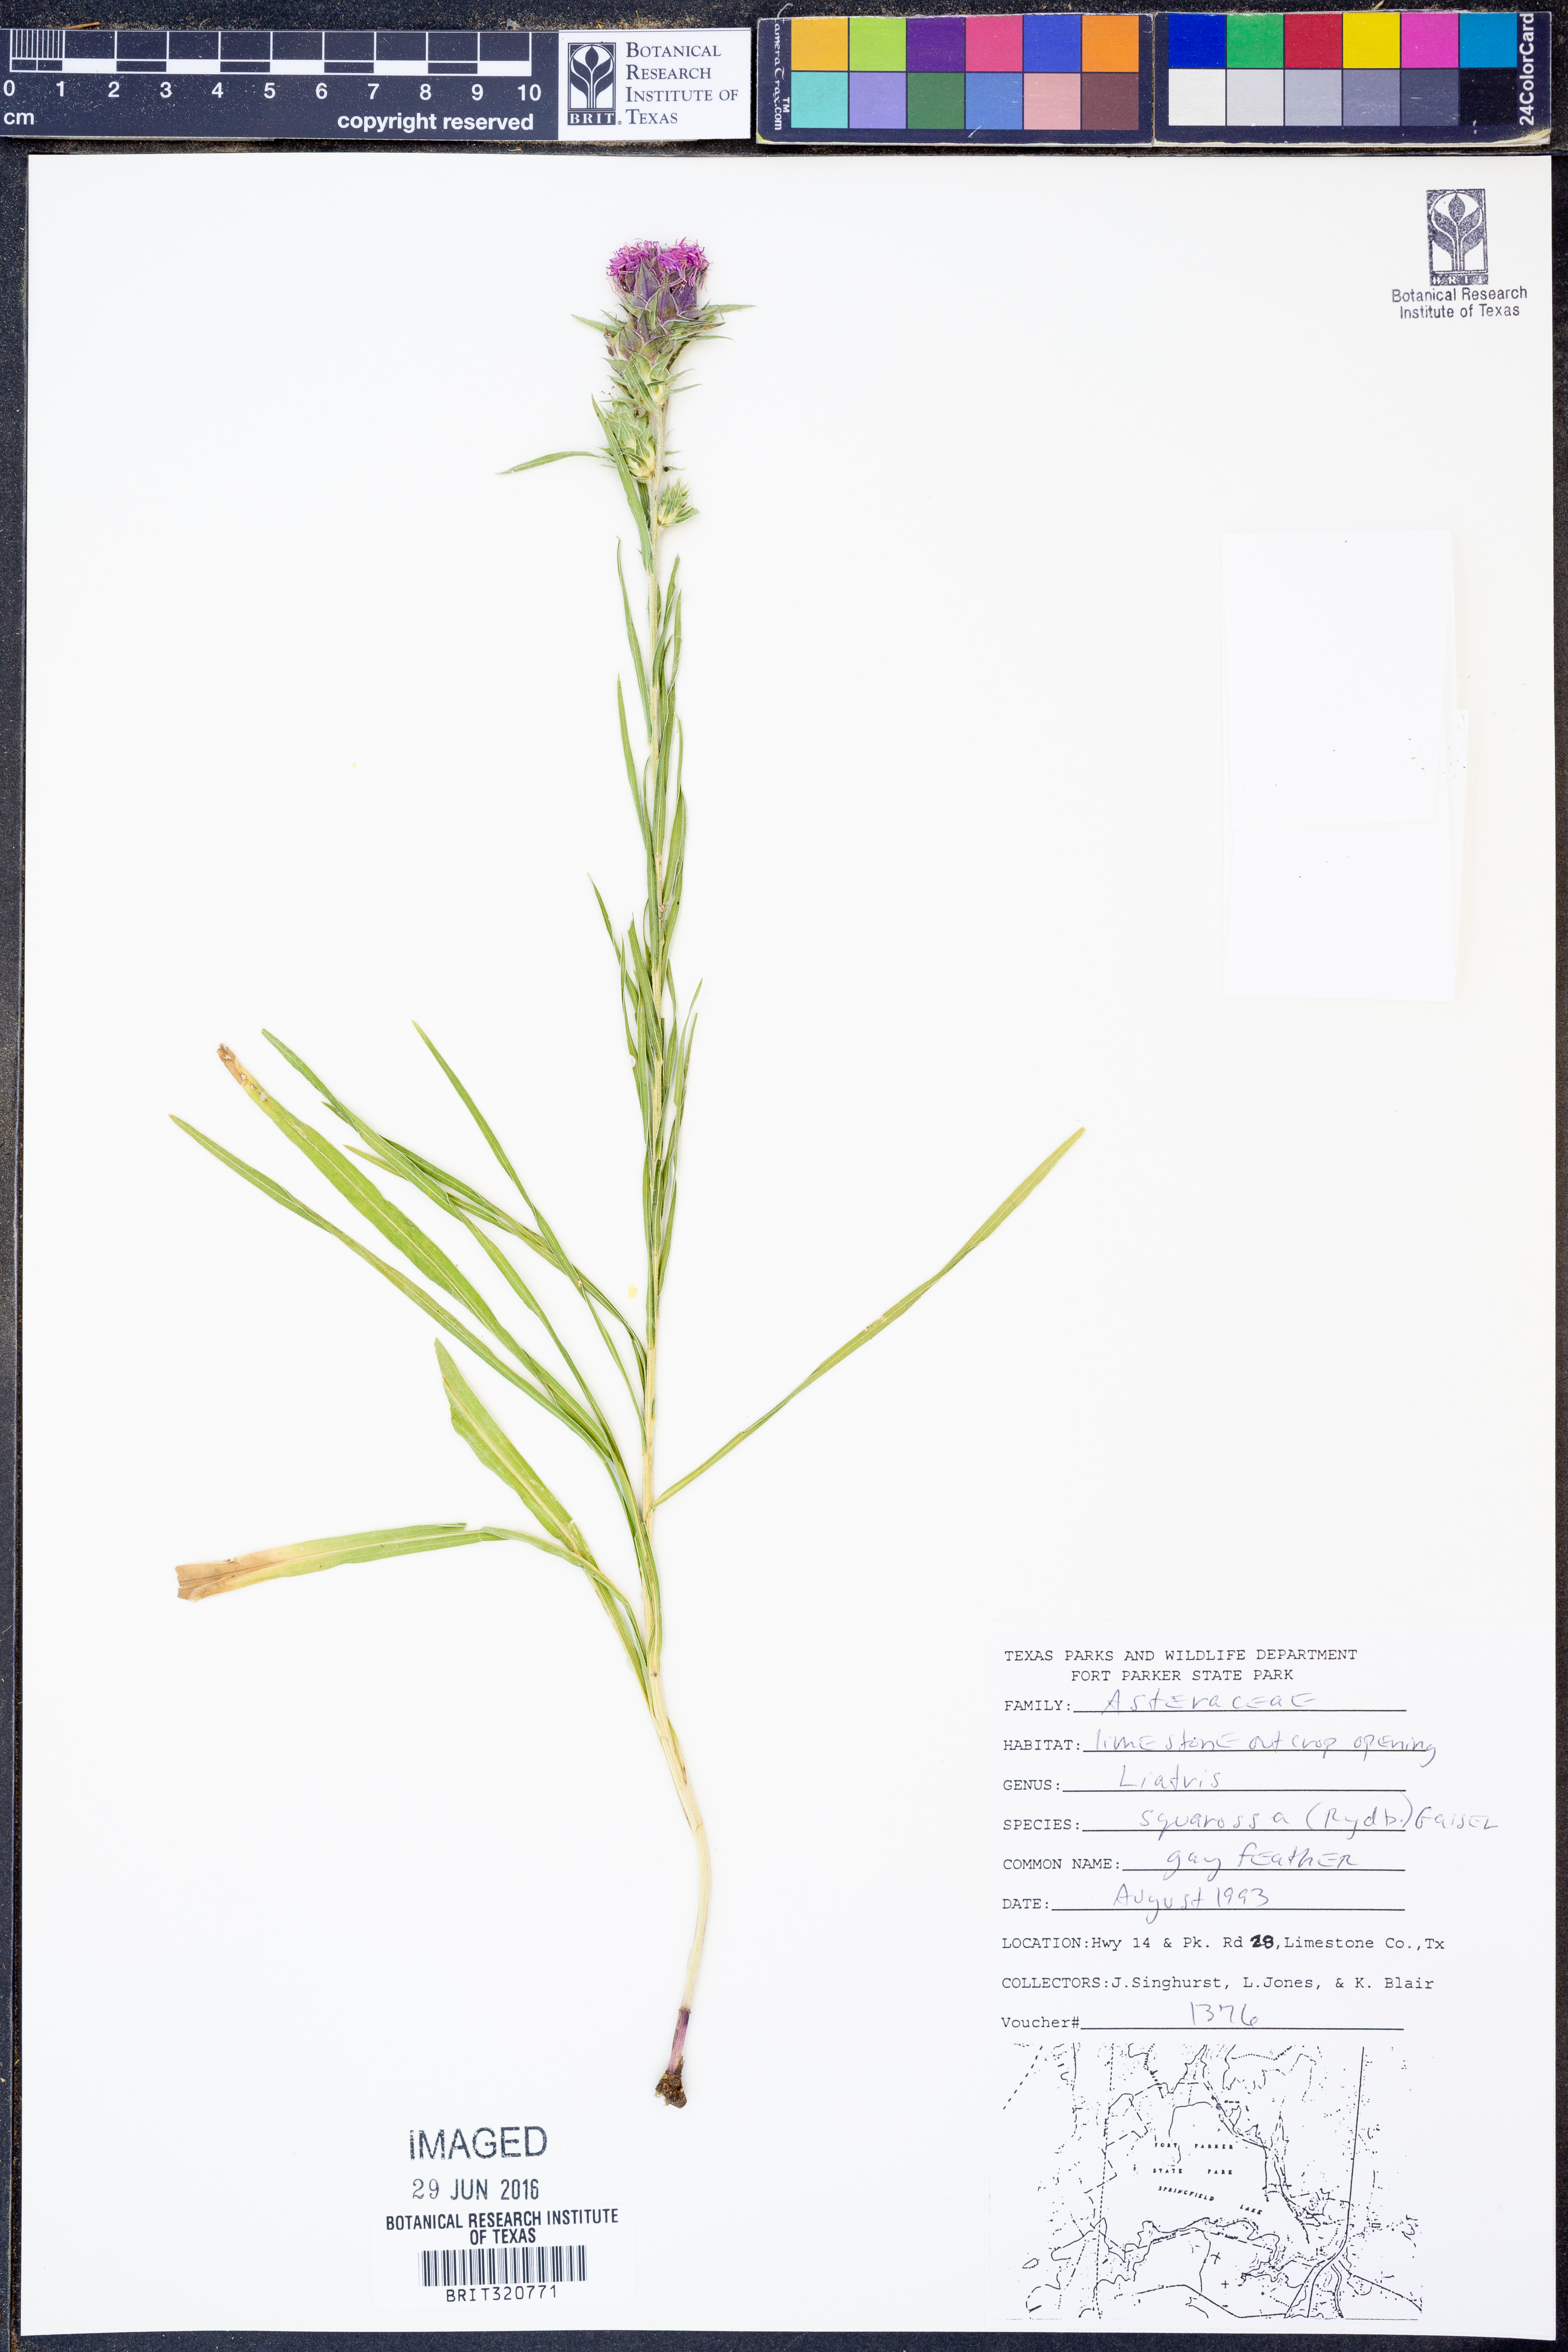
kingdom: Plantae
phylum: Tracheophyta
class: Magnoliopsida
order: Asterales
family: Asteraceae
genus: Liatris
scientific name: Liatris squarrosa
